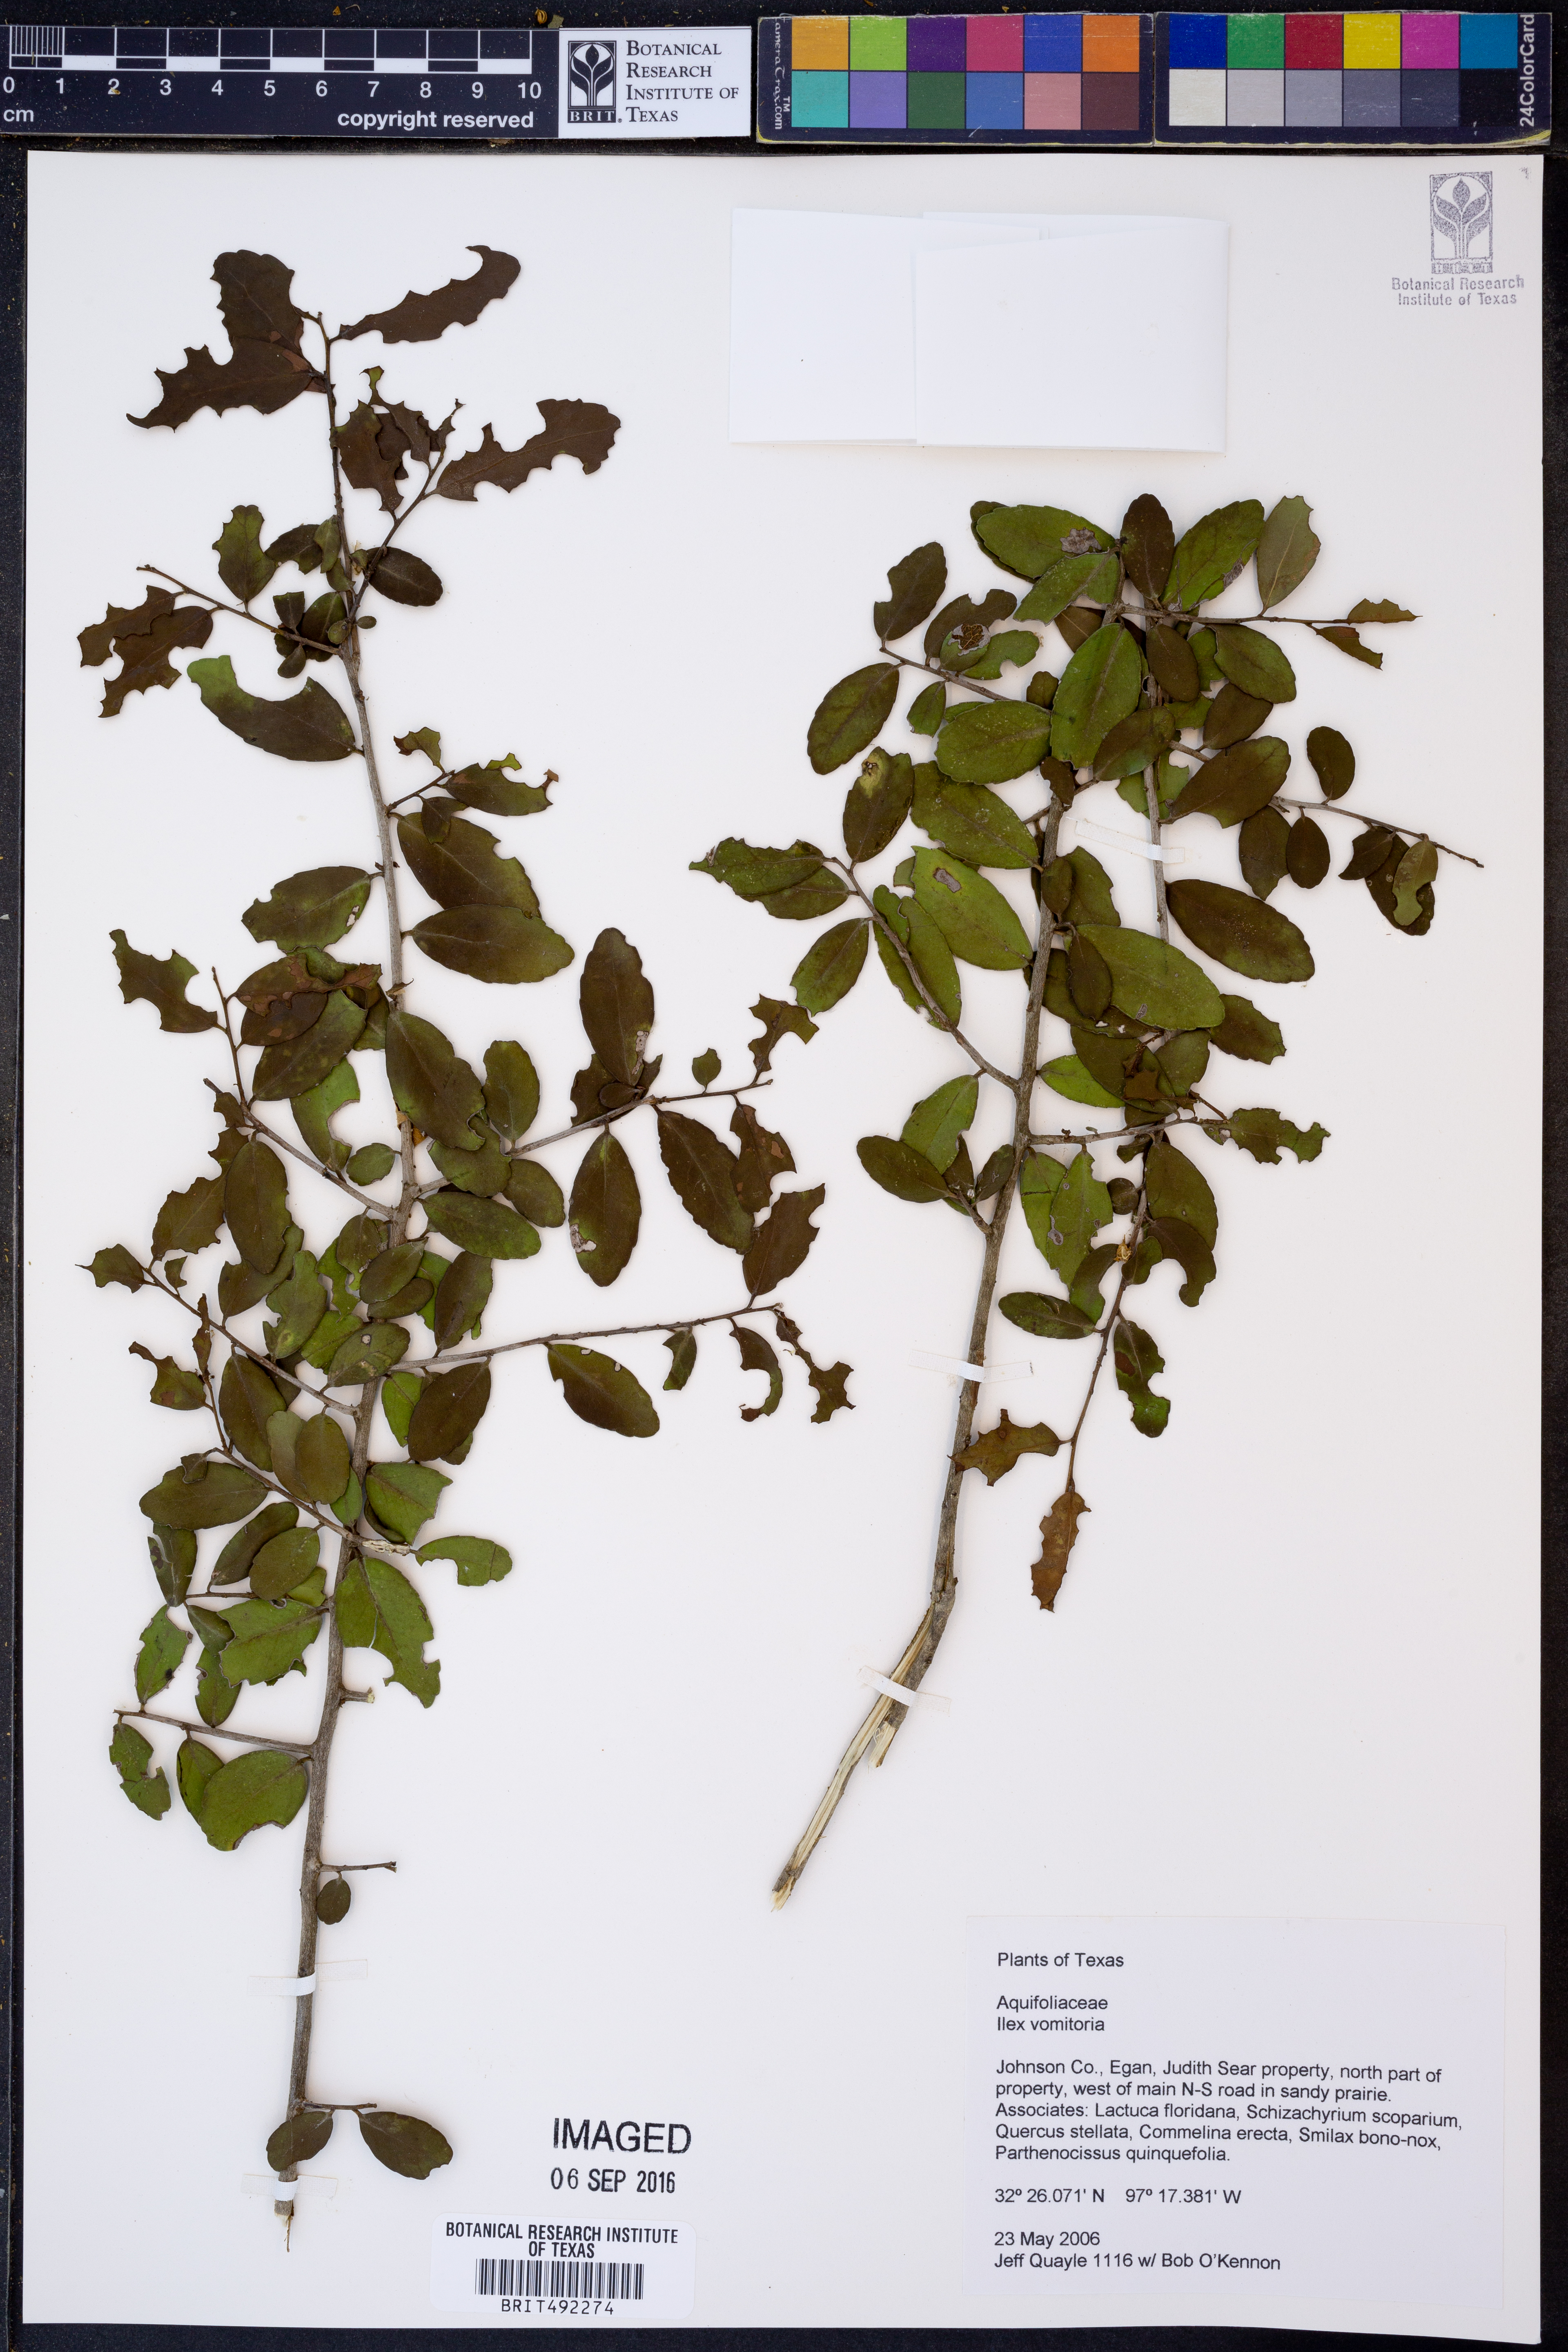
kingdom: Plantae
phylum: Tracheophyta
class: Magnoliopsida
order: Aquifoliales
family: Aquifoliaceae
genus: Ilex
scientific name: Ilex vomitoria
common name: Yaupon holly
